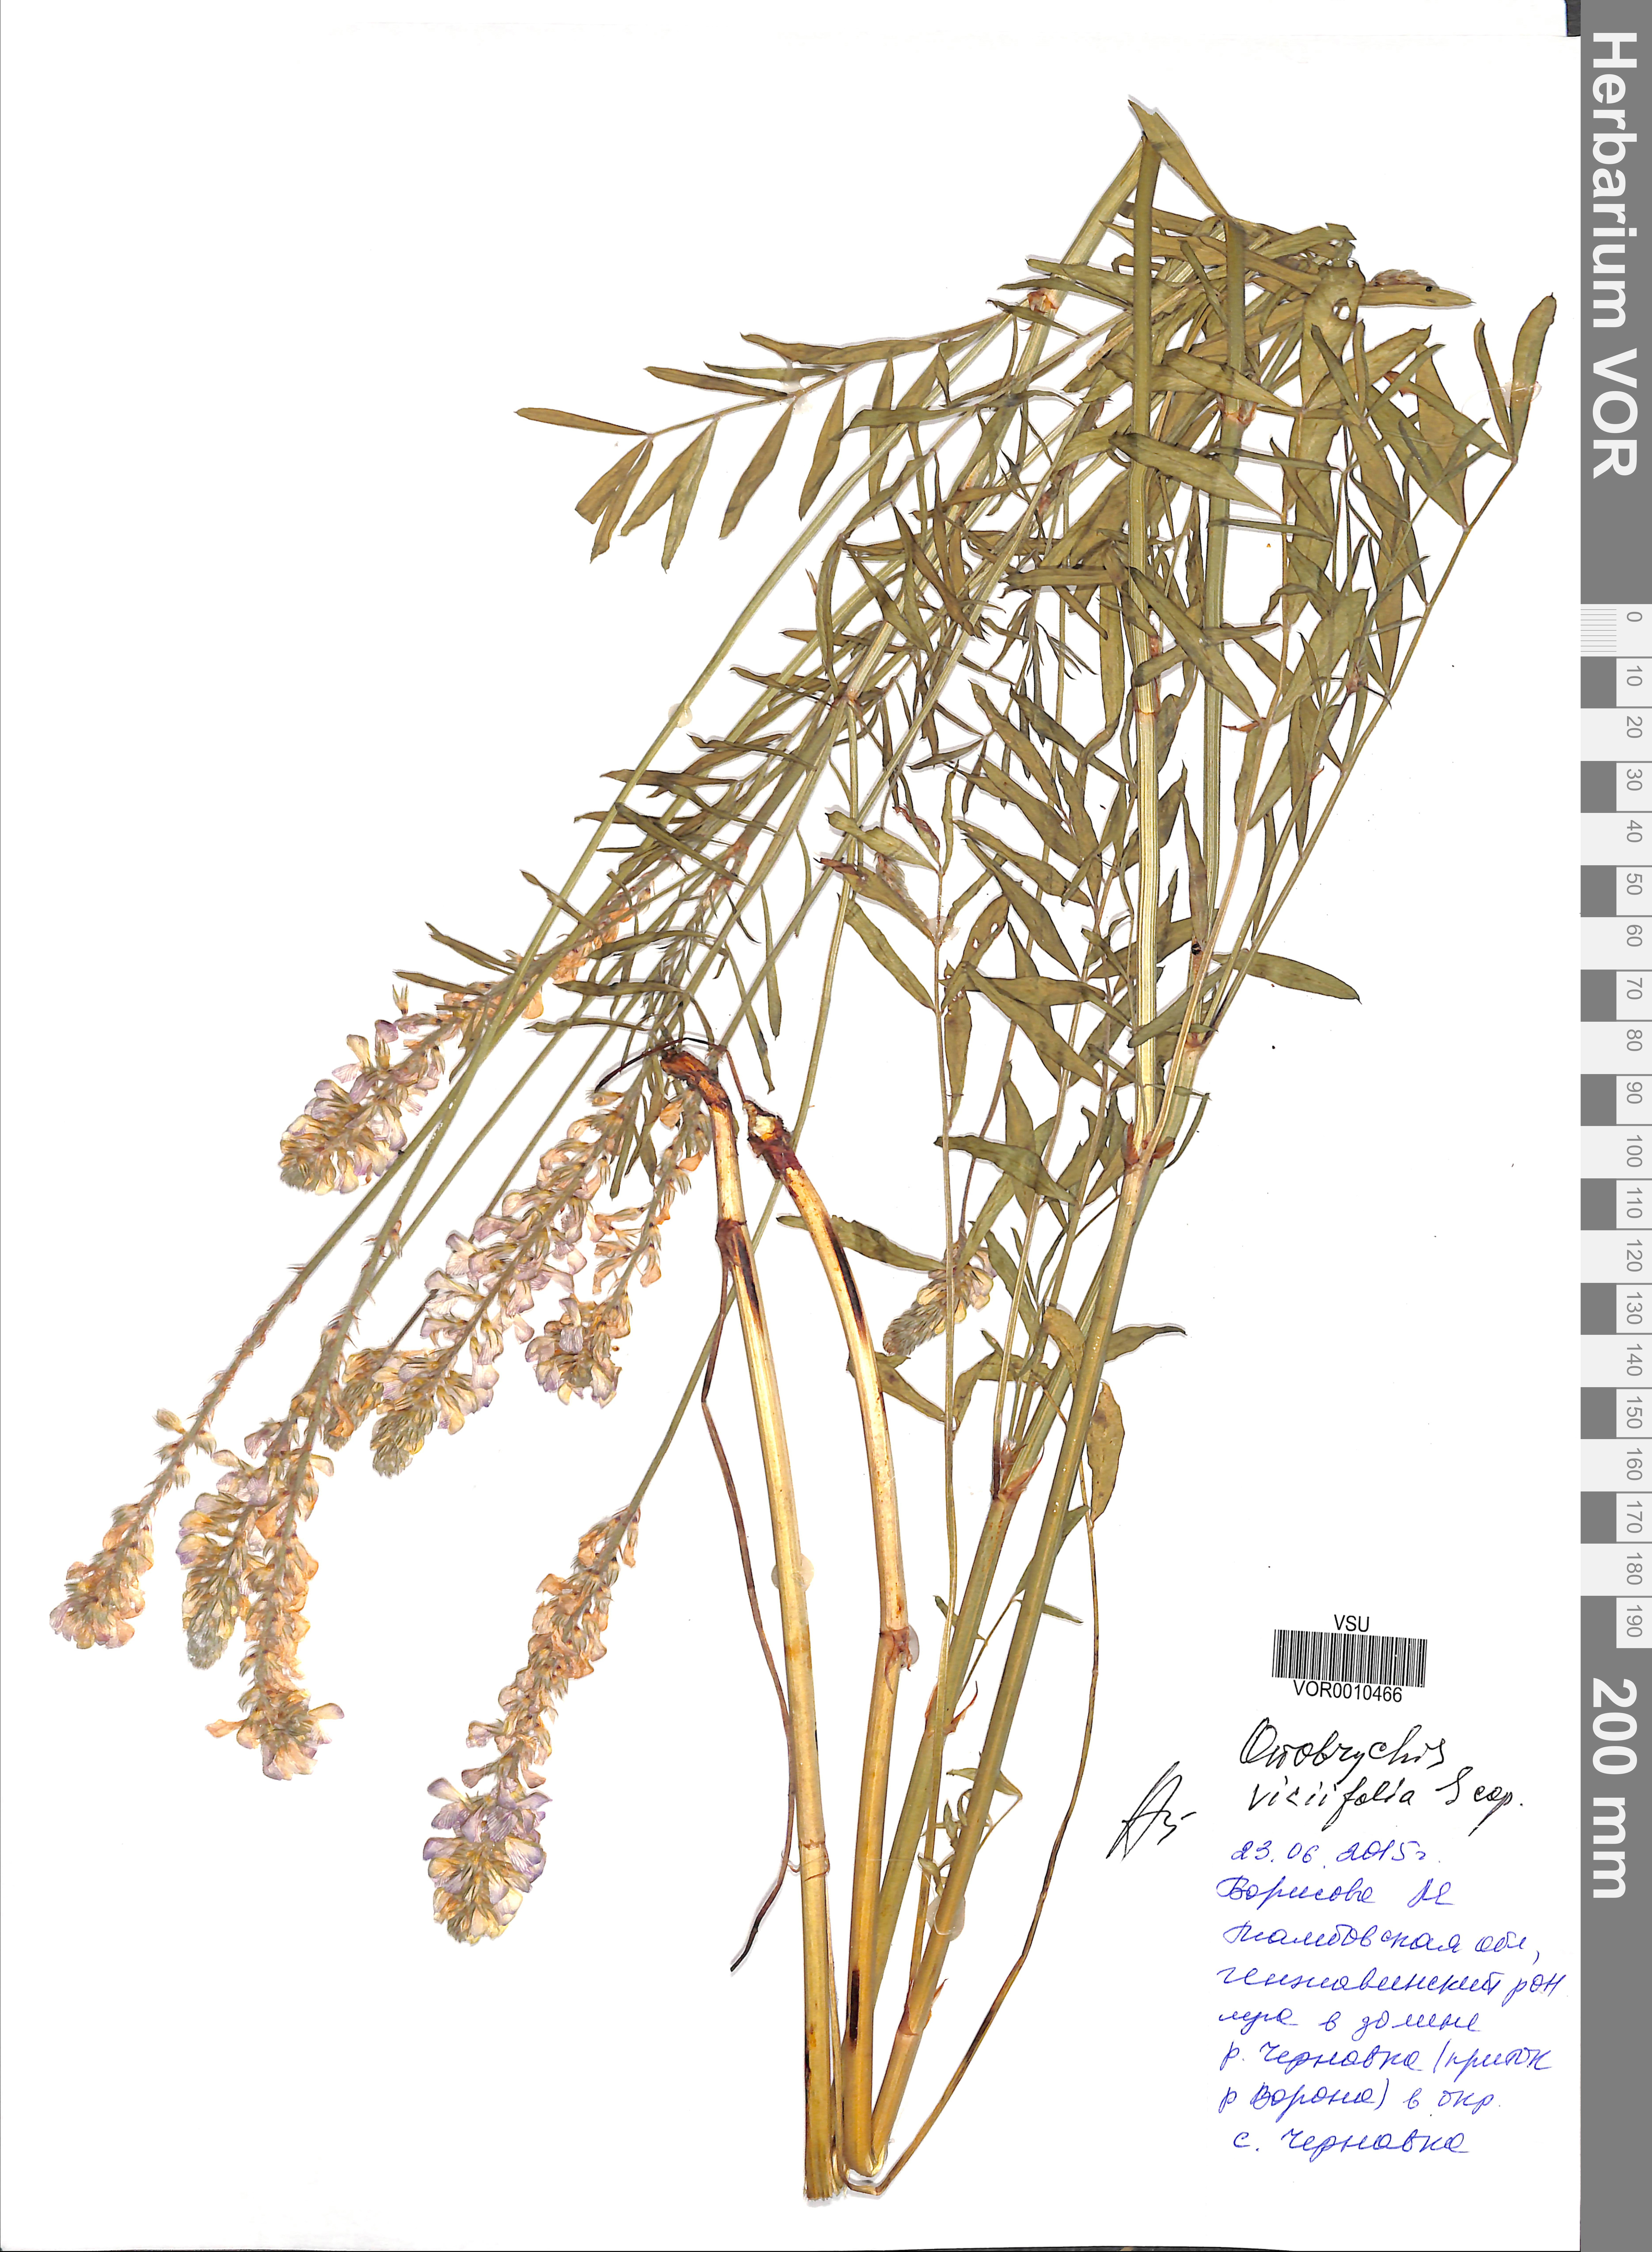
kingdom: Plantae
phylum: Tracheophyta
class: Magnoliopsida
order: Fabales
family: Fabaceae
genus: Onobrychis
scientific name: Onobrychis viciifolia
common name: Sainfoin
